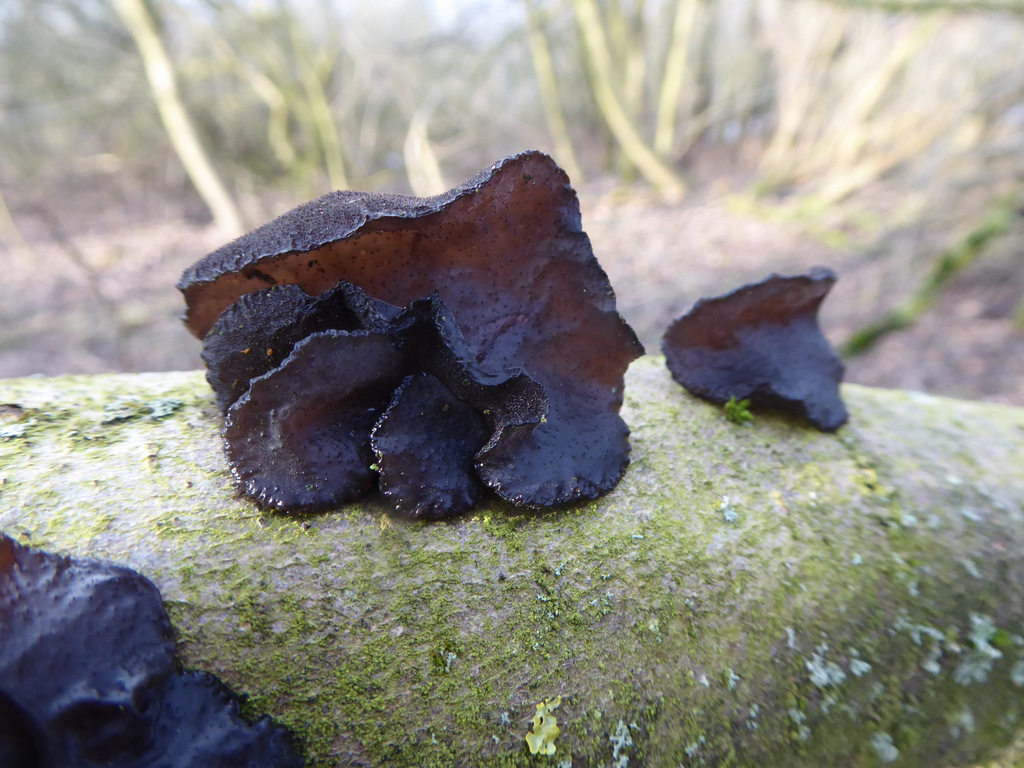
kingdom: Fungi
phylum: Basidiomycota
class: Agaricomycetes
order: Auriculariales
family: Auriculariaceae
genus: Exidia
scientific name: Exidia glandulosa
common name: ege-bævretop
